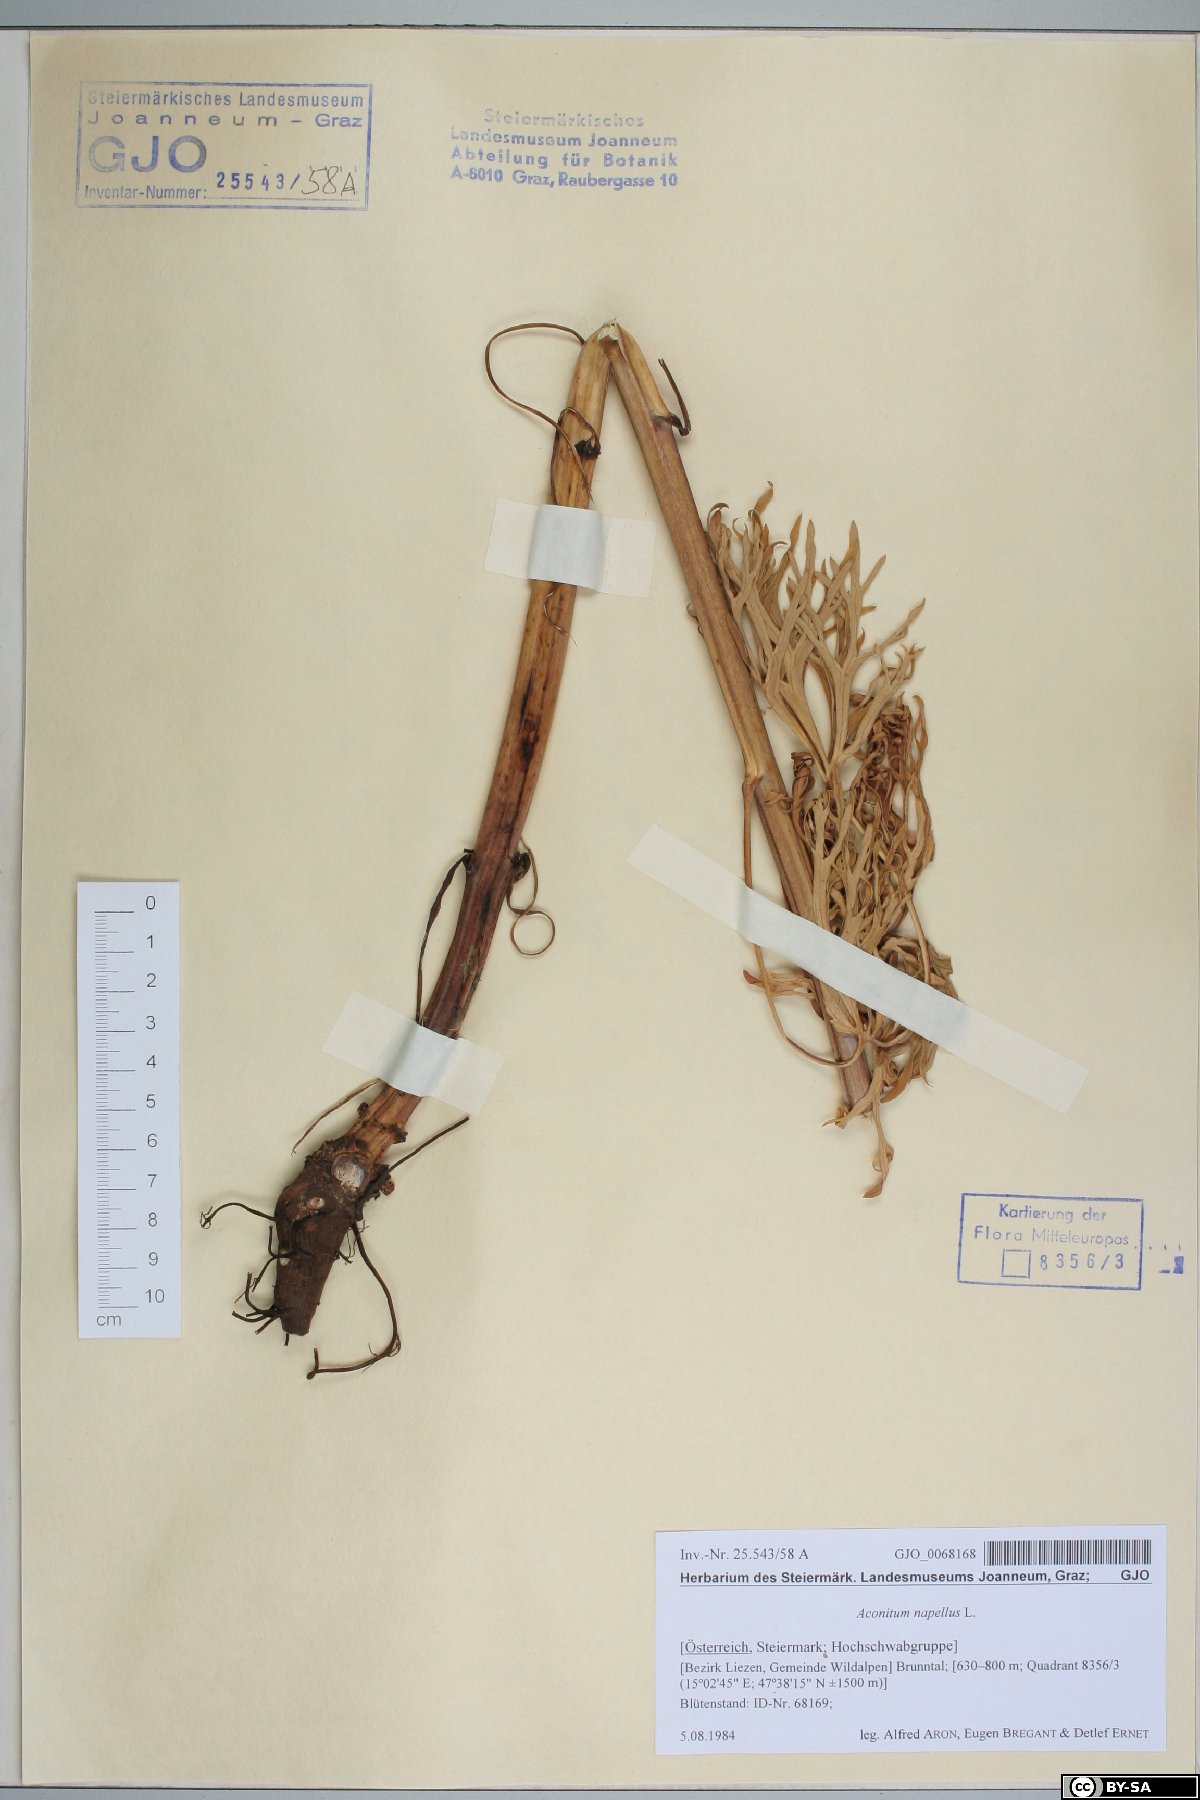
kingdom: Plantae
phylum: Tracheophyta
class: Magnoliopsida
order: Ranunculales
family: Ranunculaceae
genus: Aconitum
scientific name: Aconitum napellus
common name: Garden monkshood
